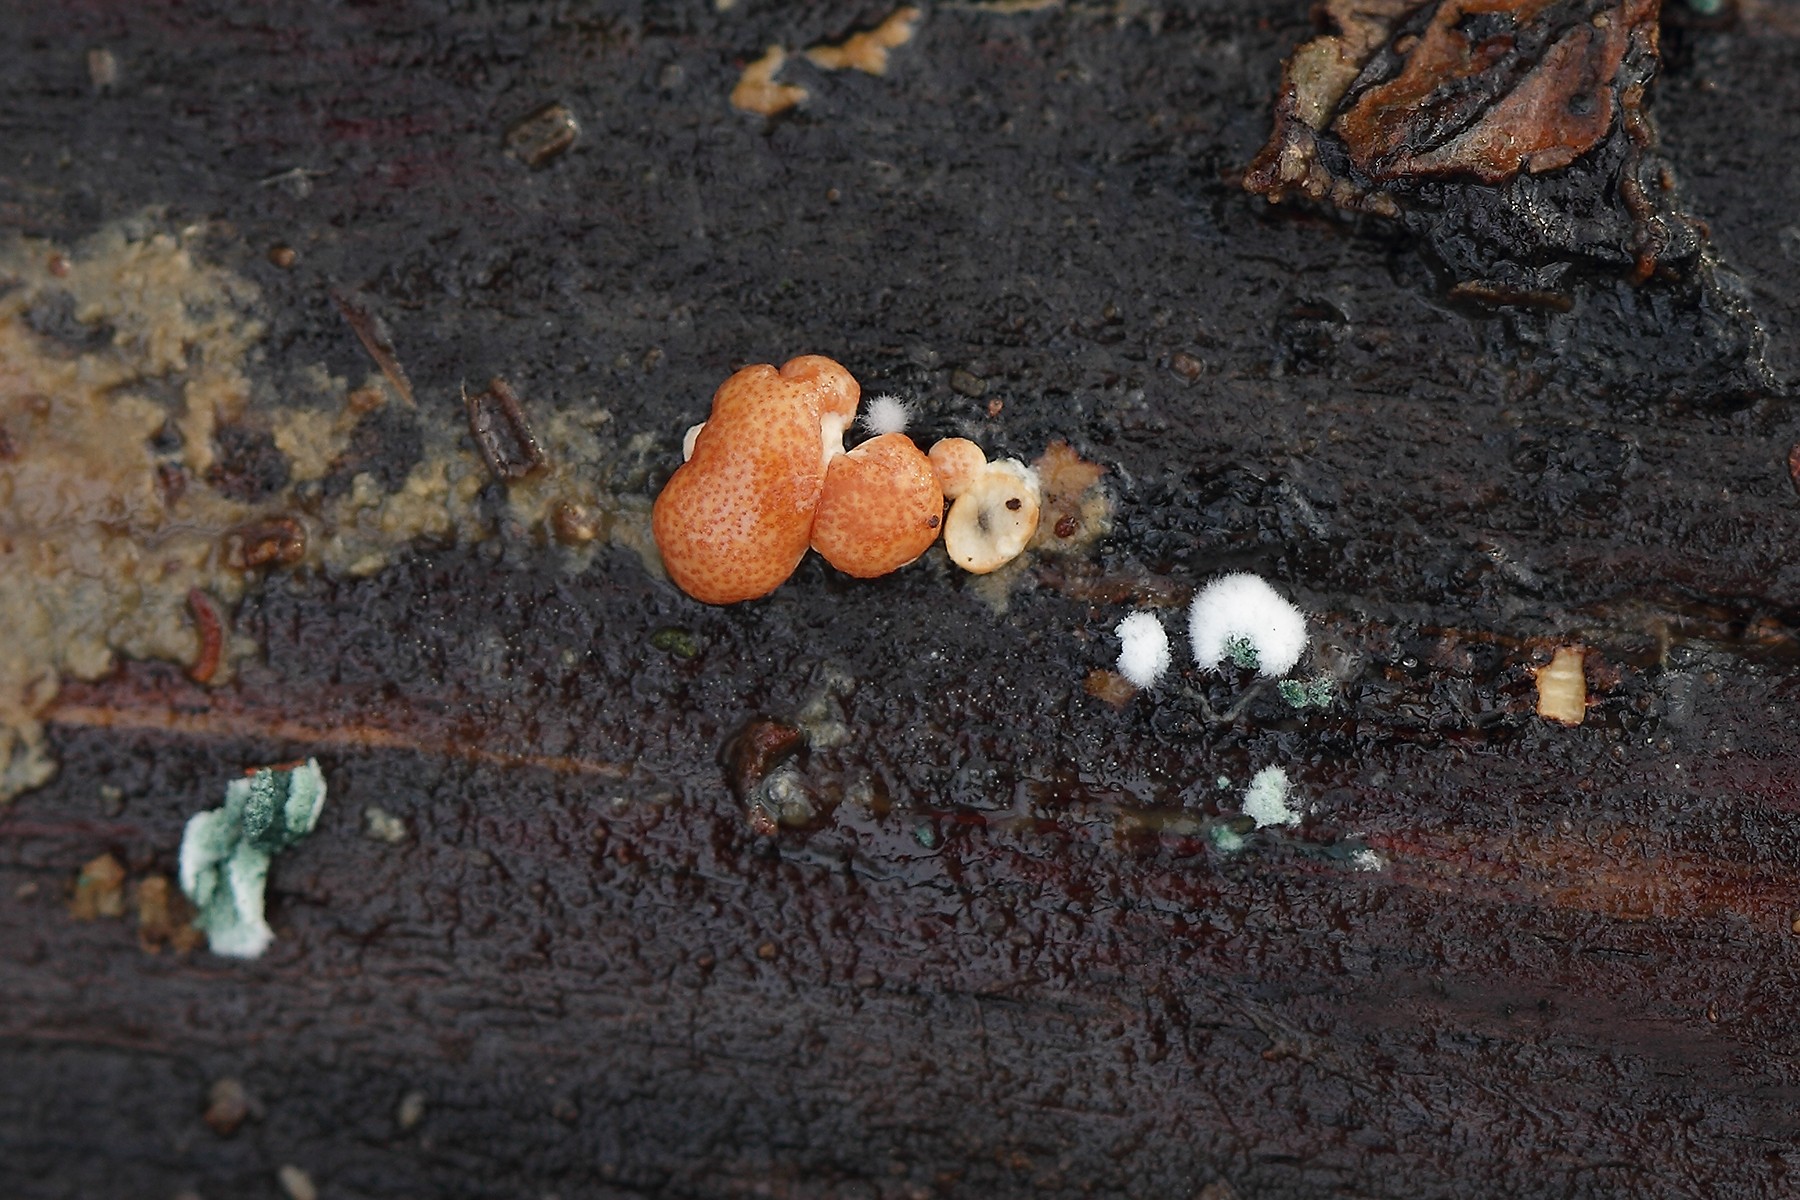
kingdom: Fungi
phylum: Ascomycota
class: Sordariomycetes
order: Hypocreales
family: Hypocreaceae
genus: Trichoderma
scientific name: Trichoderma europaeum
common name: rosabrun kødkerne
